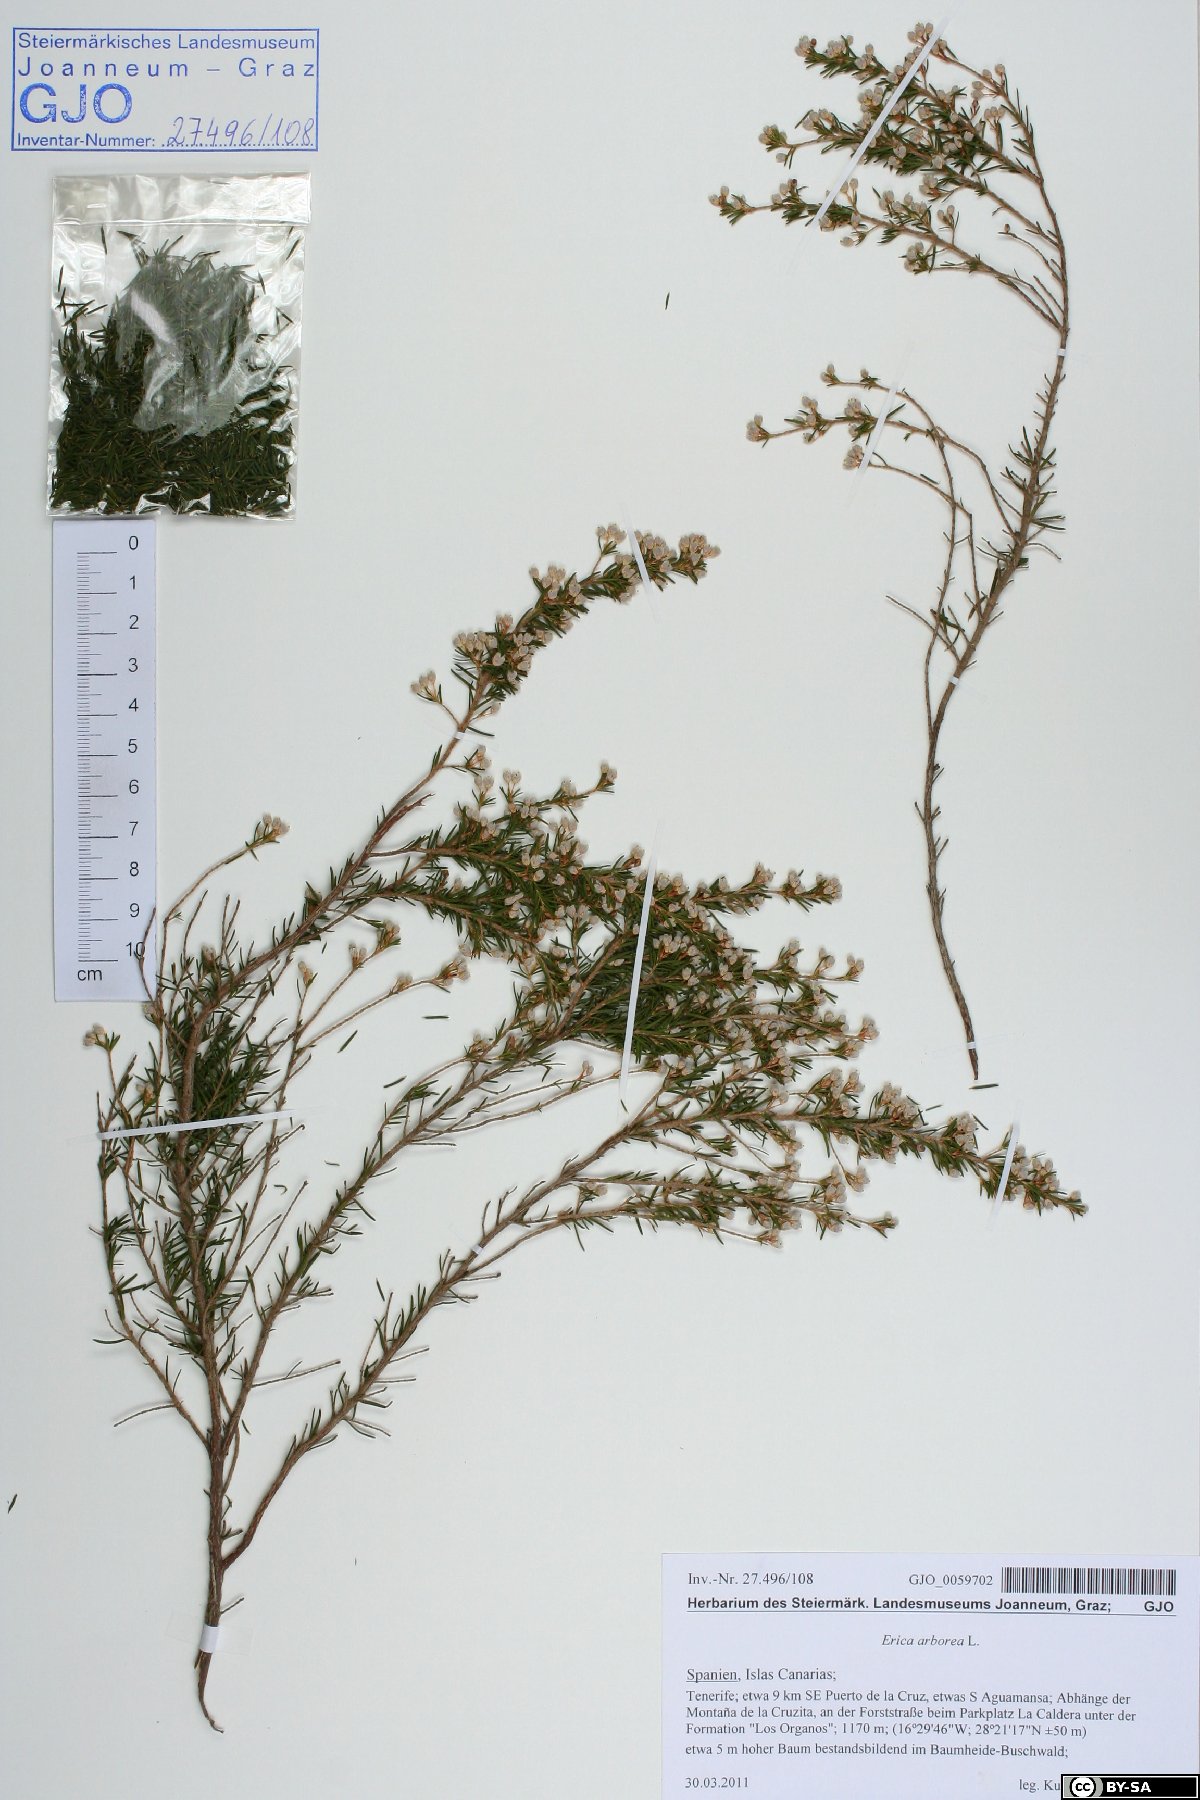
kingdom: Plantae
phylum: Tracheophyta
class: Magnoliopsida
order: Ericales
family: Ericaceae
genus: Erica
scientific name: Erica arborea
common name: Tree heath
